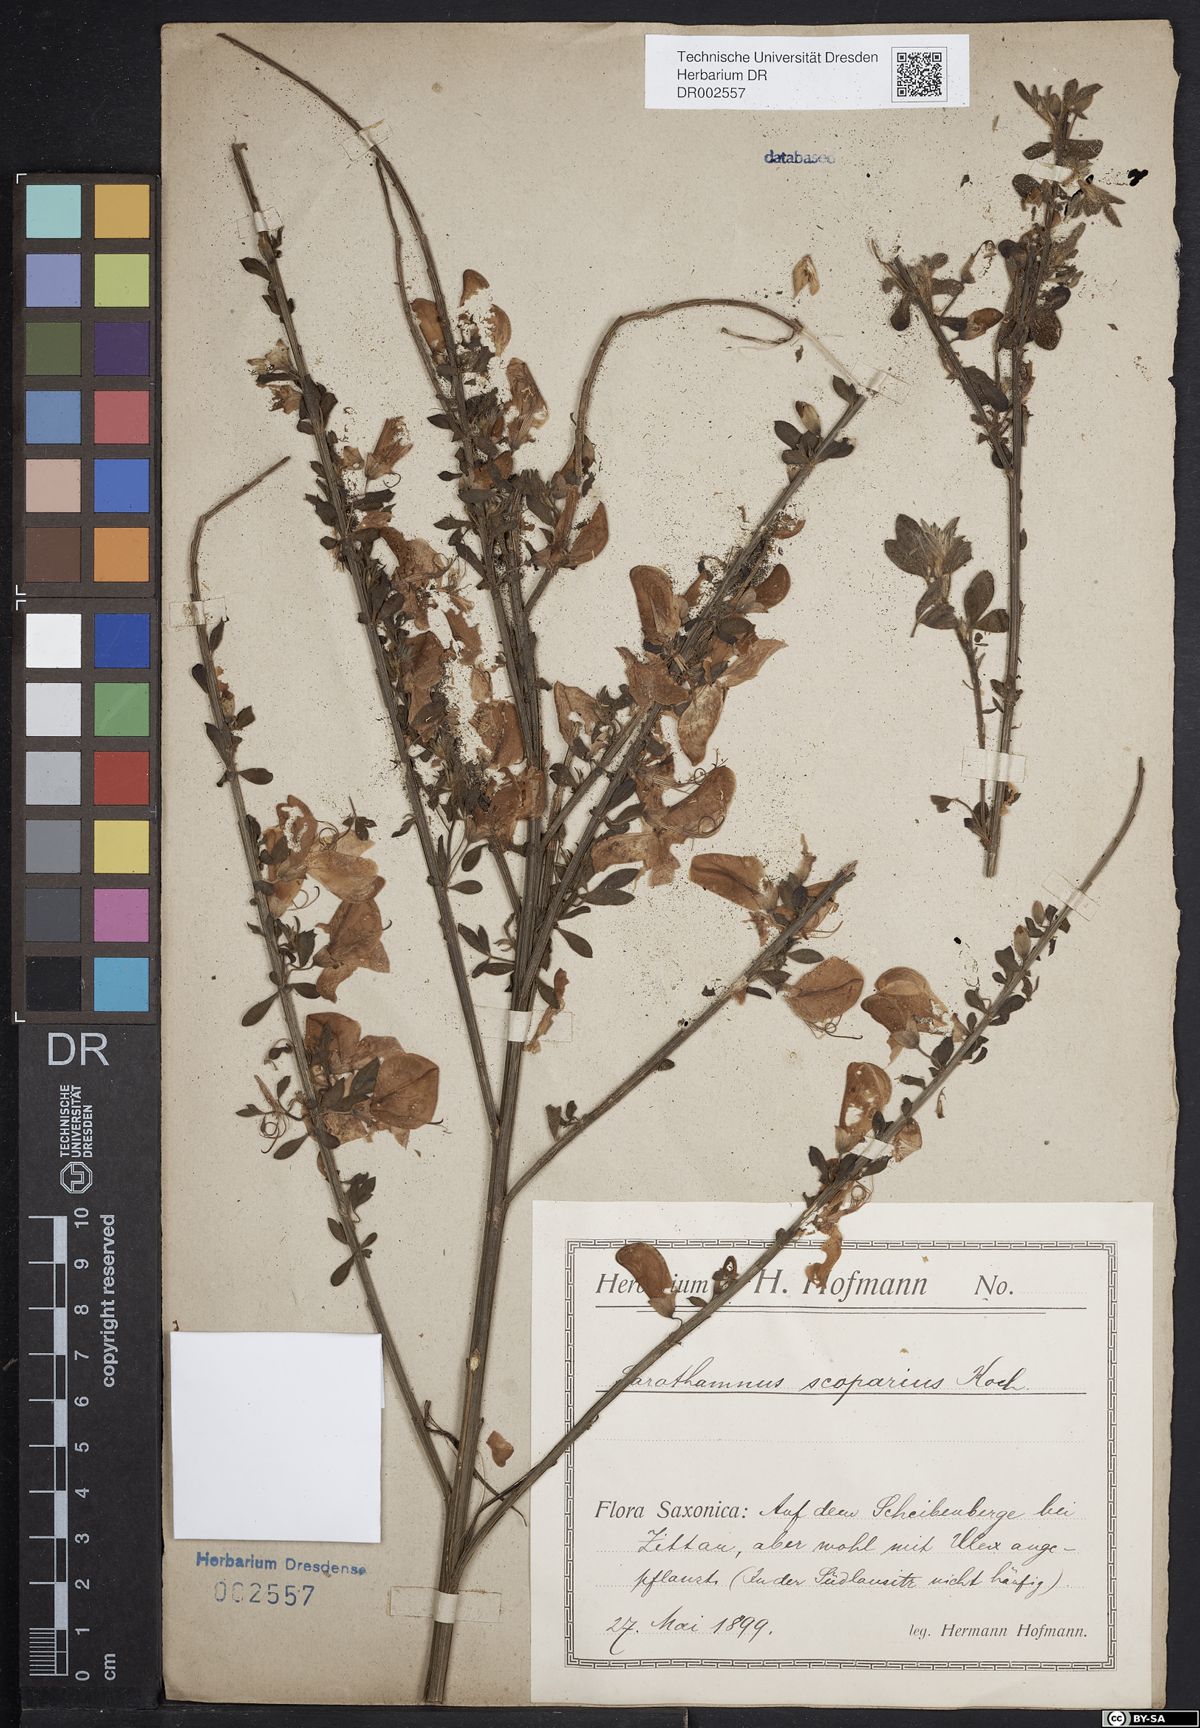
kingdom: Plantae
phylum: Tracheophyta
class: Magnoliopsida
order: Fabales
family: Fabaceae
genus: Cytisus
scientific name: Cytisus scoparius
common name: Scotch broom
